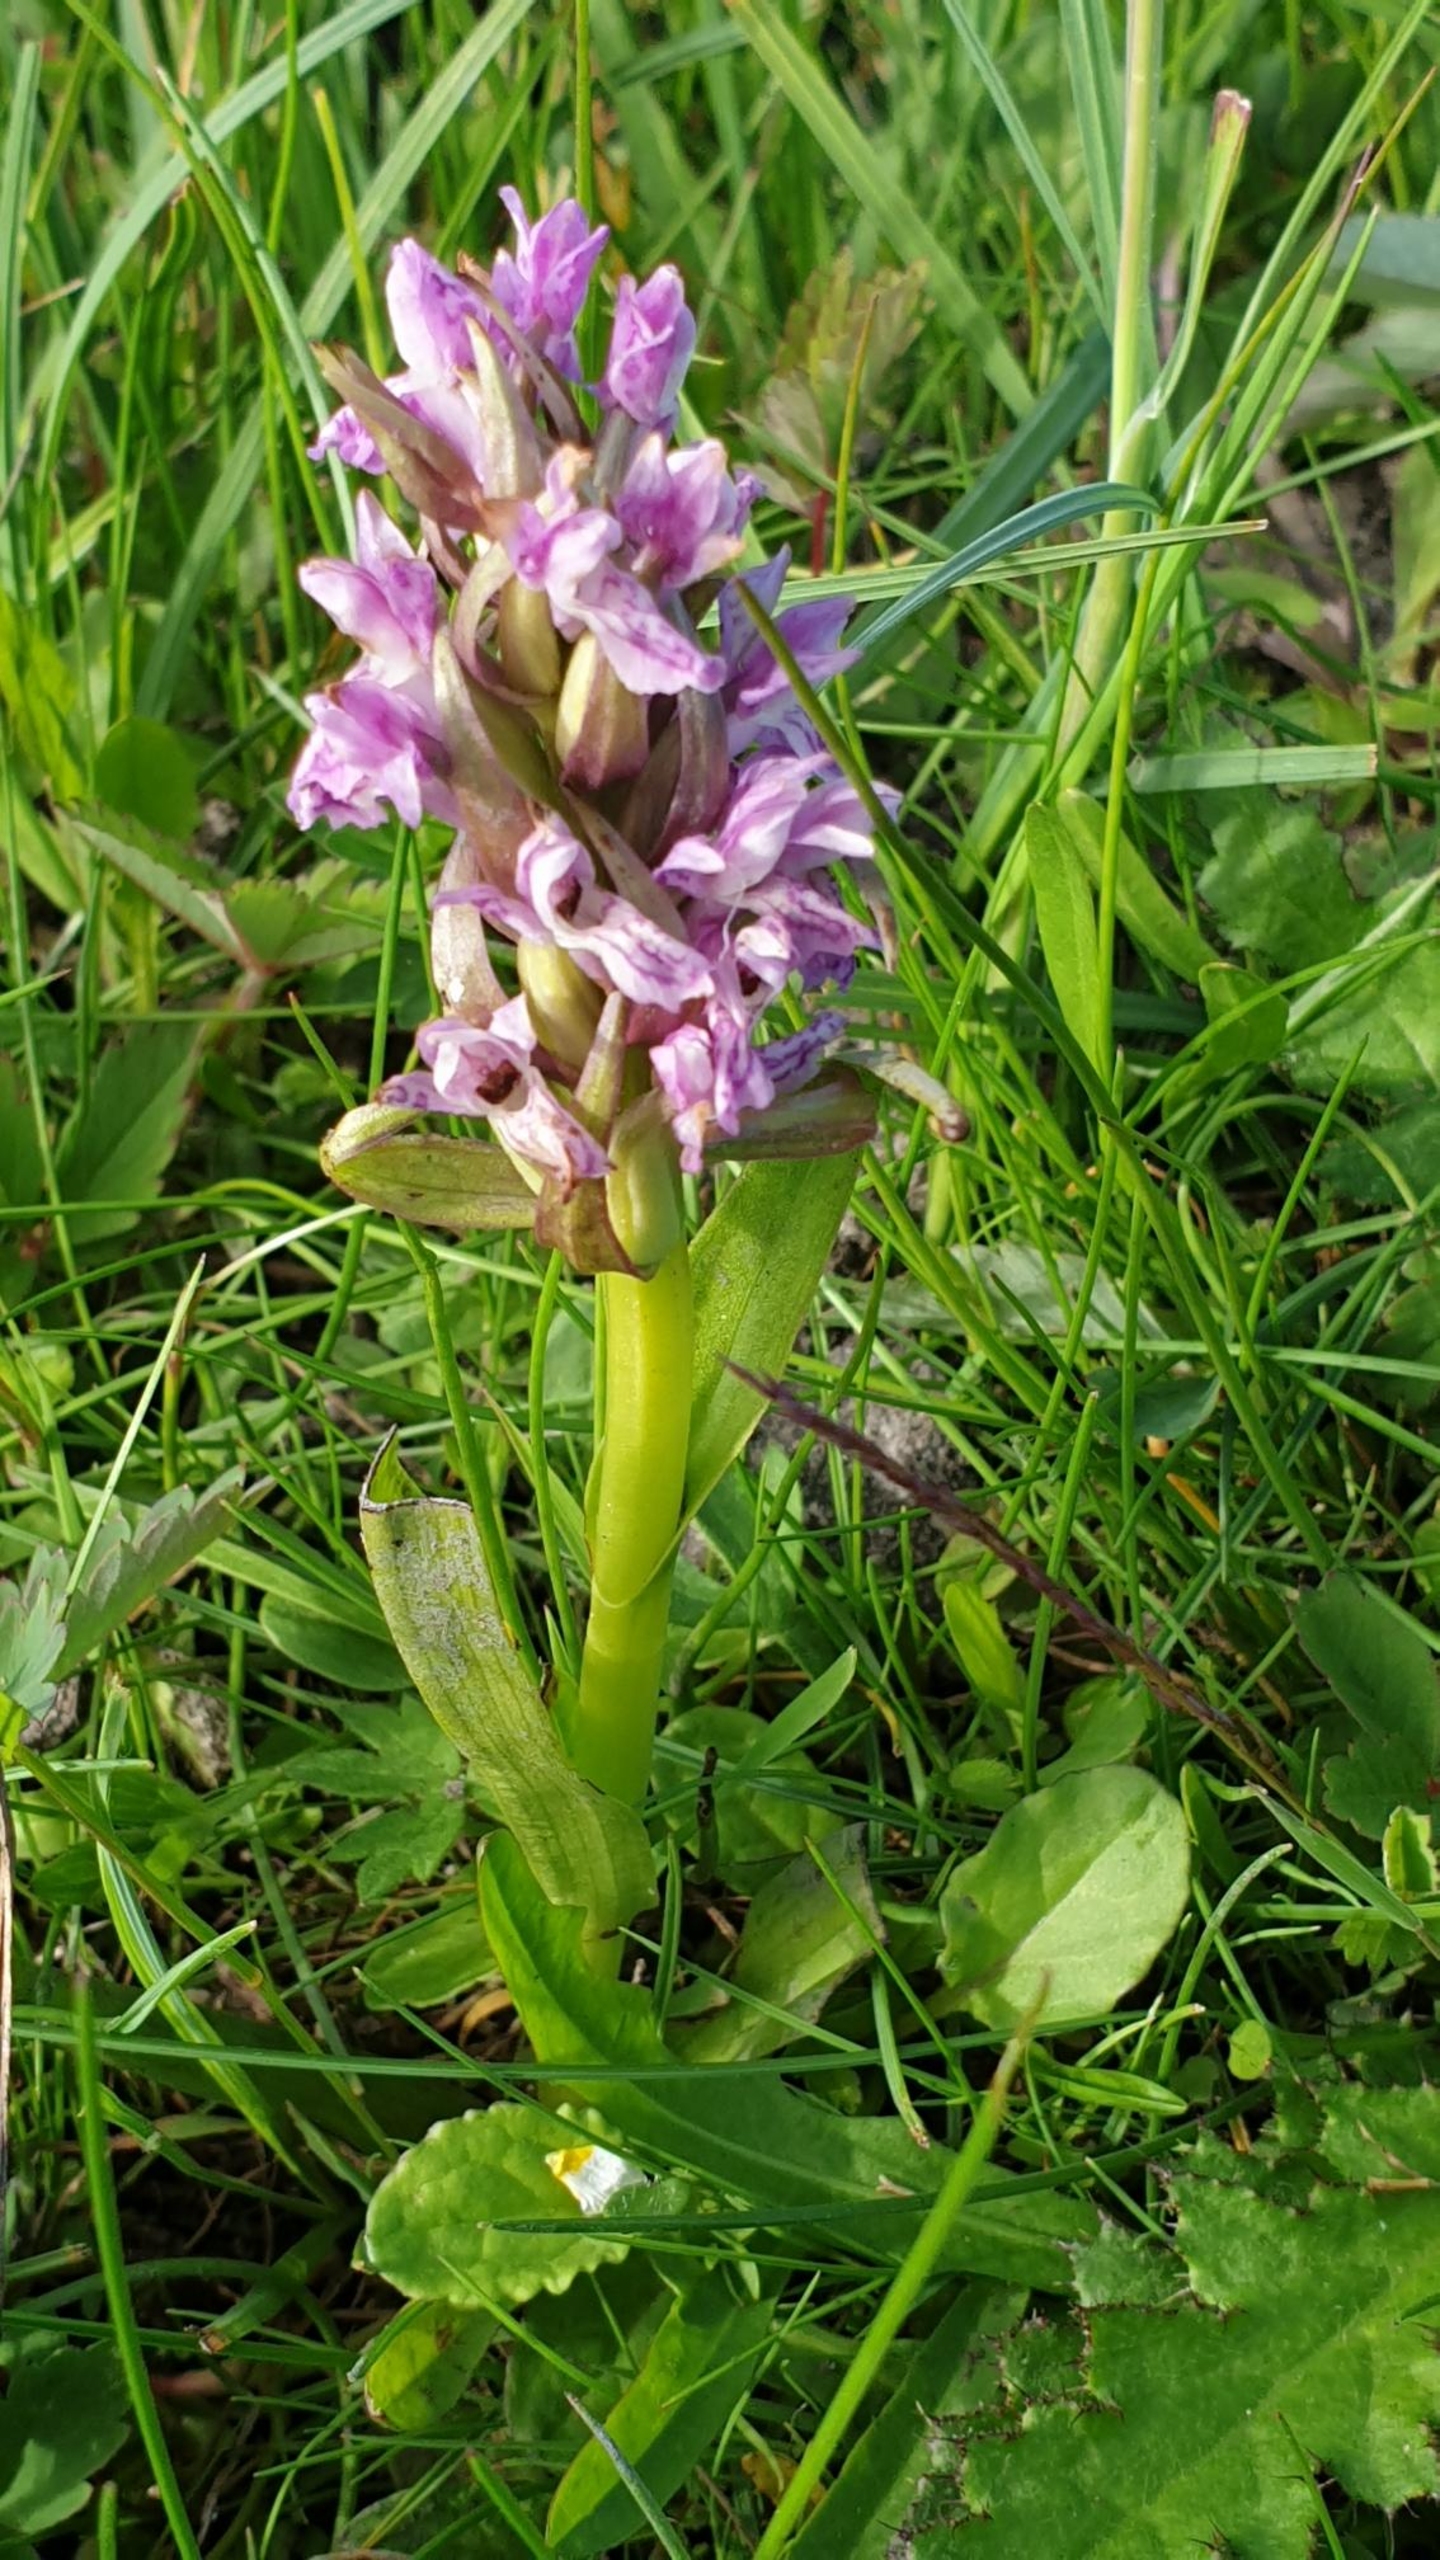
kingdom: Plantae
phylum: Tracheophyta
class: Liliopsida
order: Asparagales
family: Orchidaceae
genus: Dactylorhiza
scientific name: Dactylorhiza incarnata
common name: Kødfarvet gøgeurt
